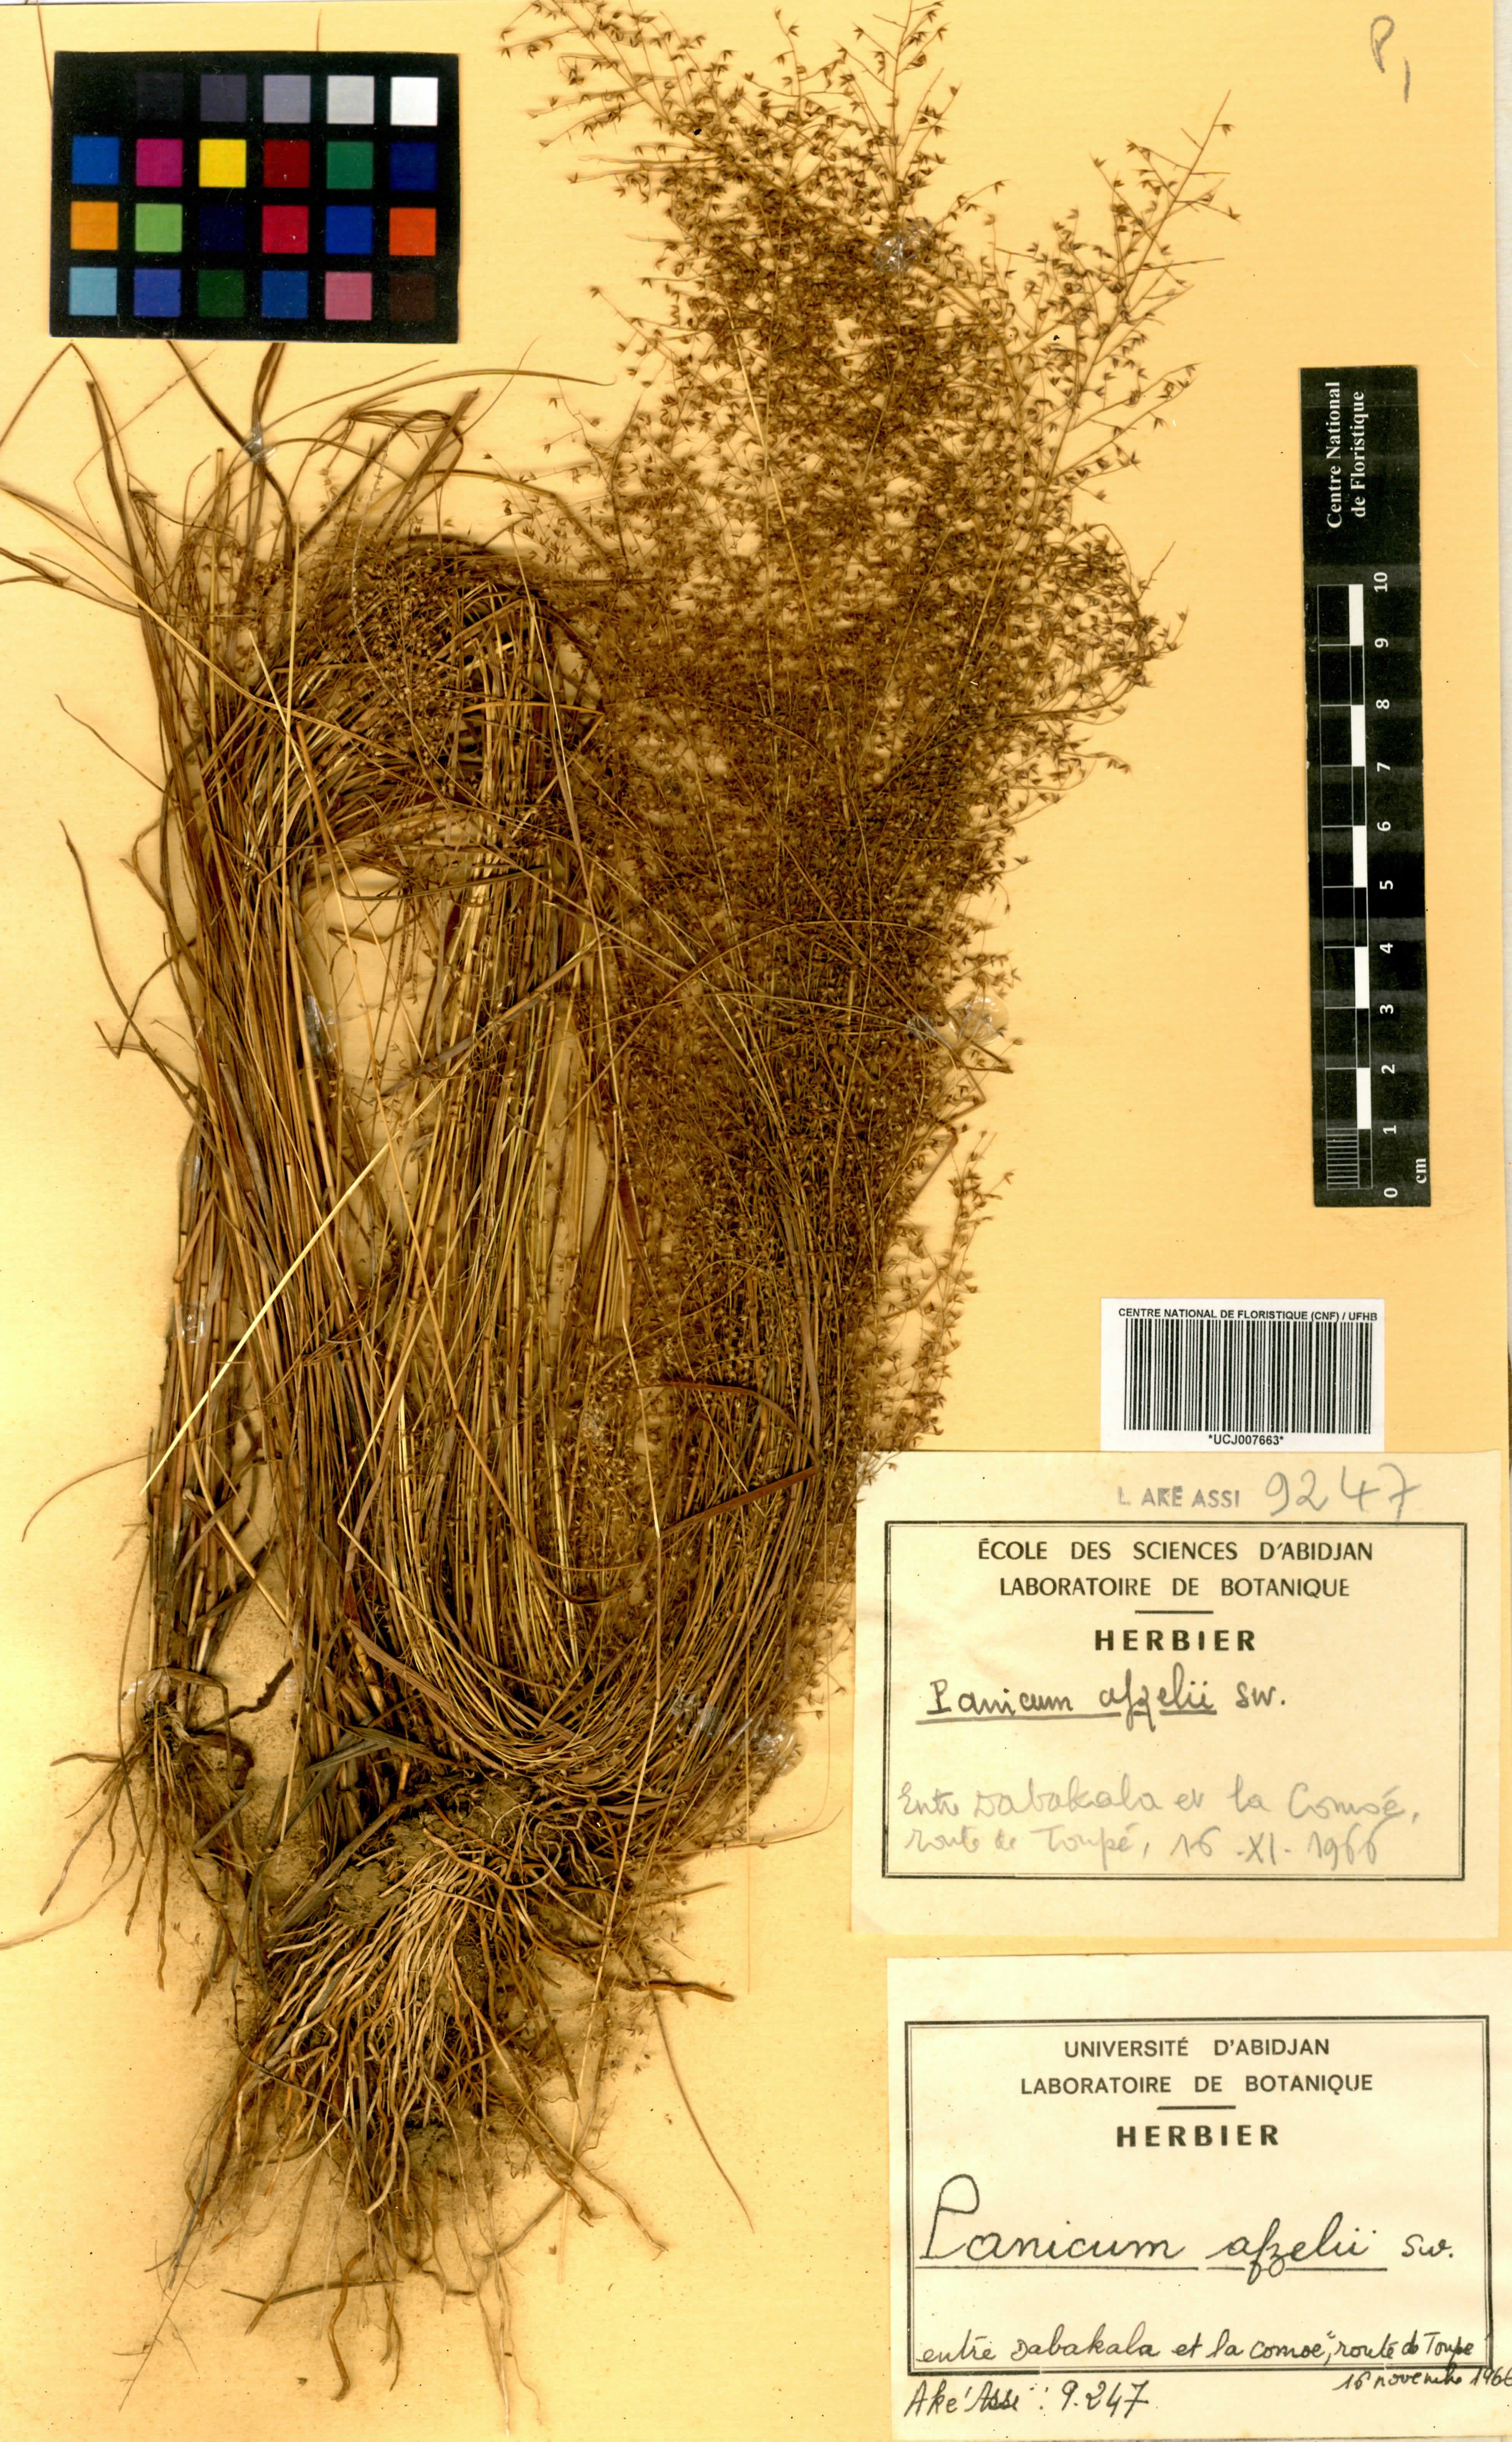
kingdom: Plantae
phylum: Tracheophyta
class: Liliopsida
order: Poales
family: Poaceae
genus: Panicum
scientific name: Panicum afzelii
